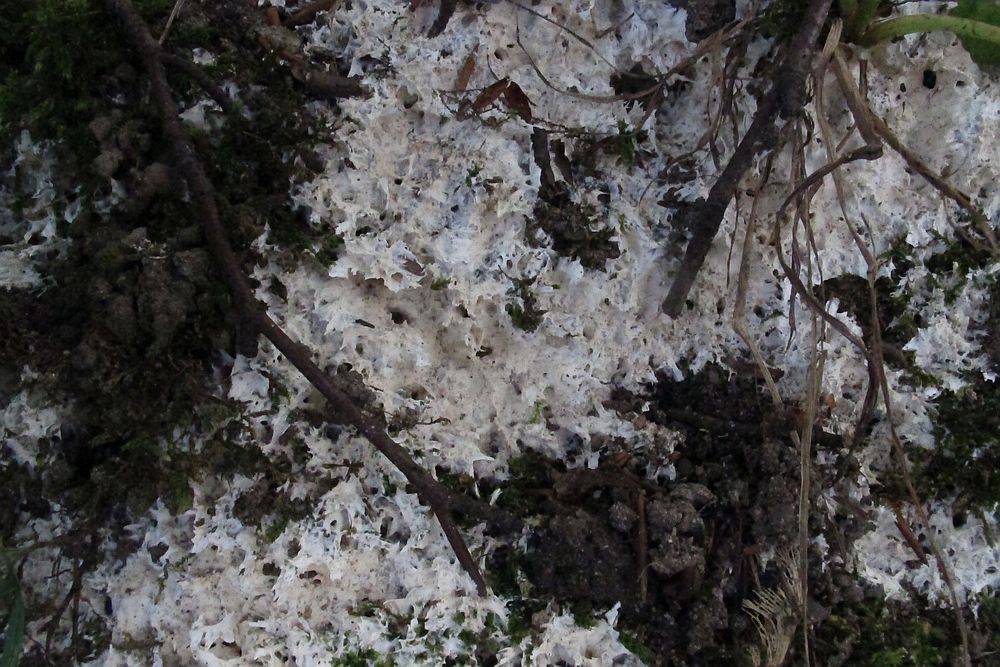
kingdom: Fungi
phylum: Basidiomycota
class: Agaricomycetes
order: Trechisporales
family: Sistotremataceae
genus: Trechispora
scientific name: Trechispora fastidiosa
